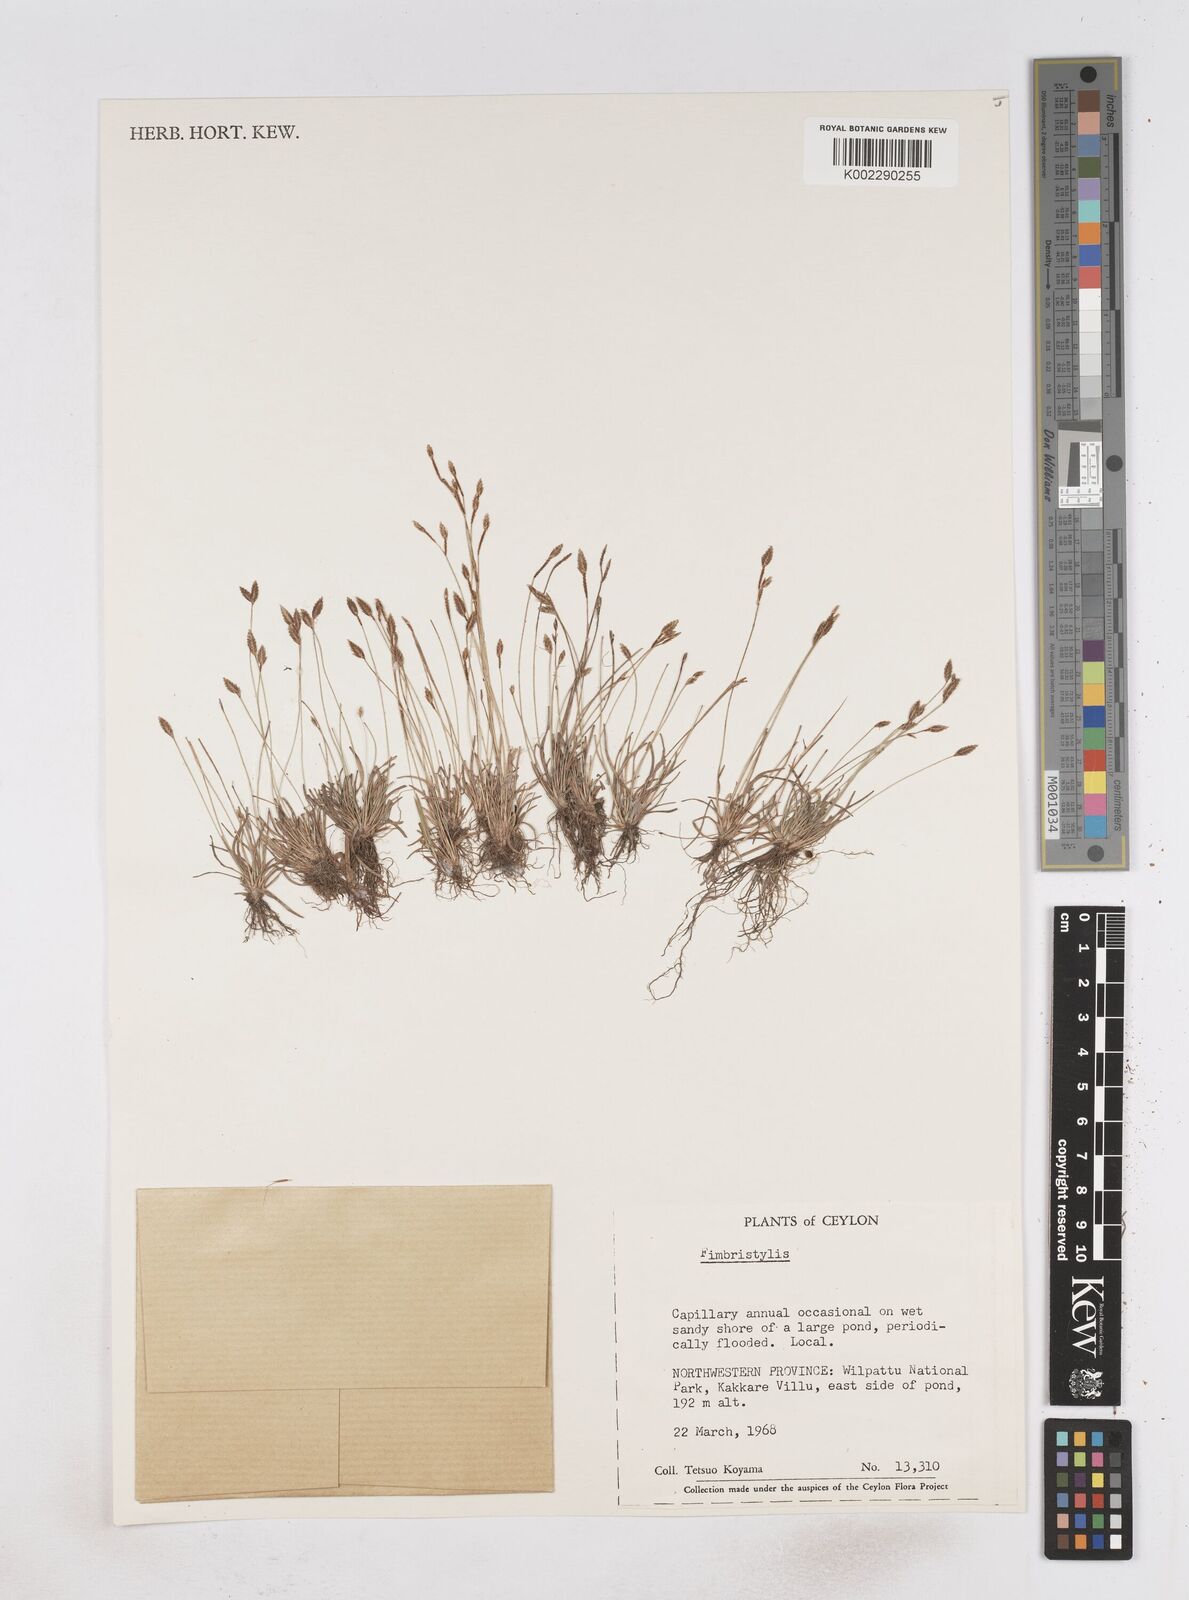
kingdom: Plantae
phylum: Tracheophyta
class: Liliopsida
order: Poales
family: Cyperaceae
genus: Fimbristylis
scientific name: Fimbristylis
